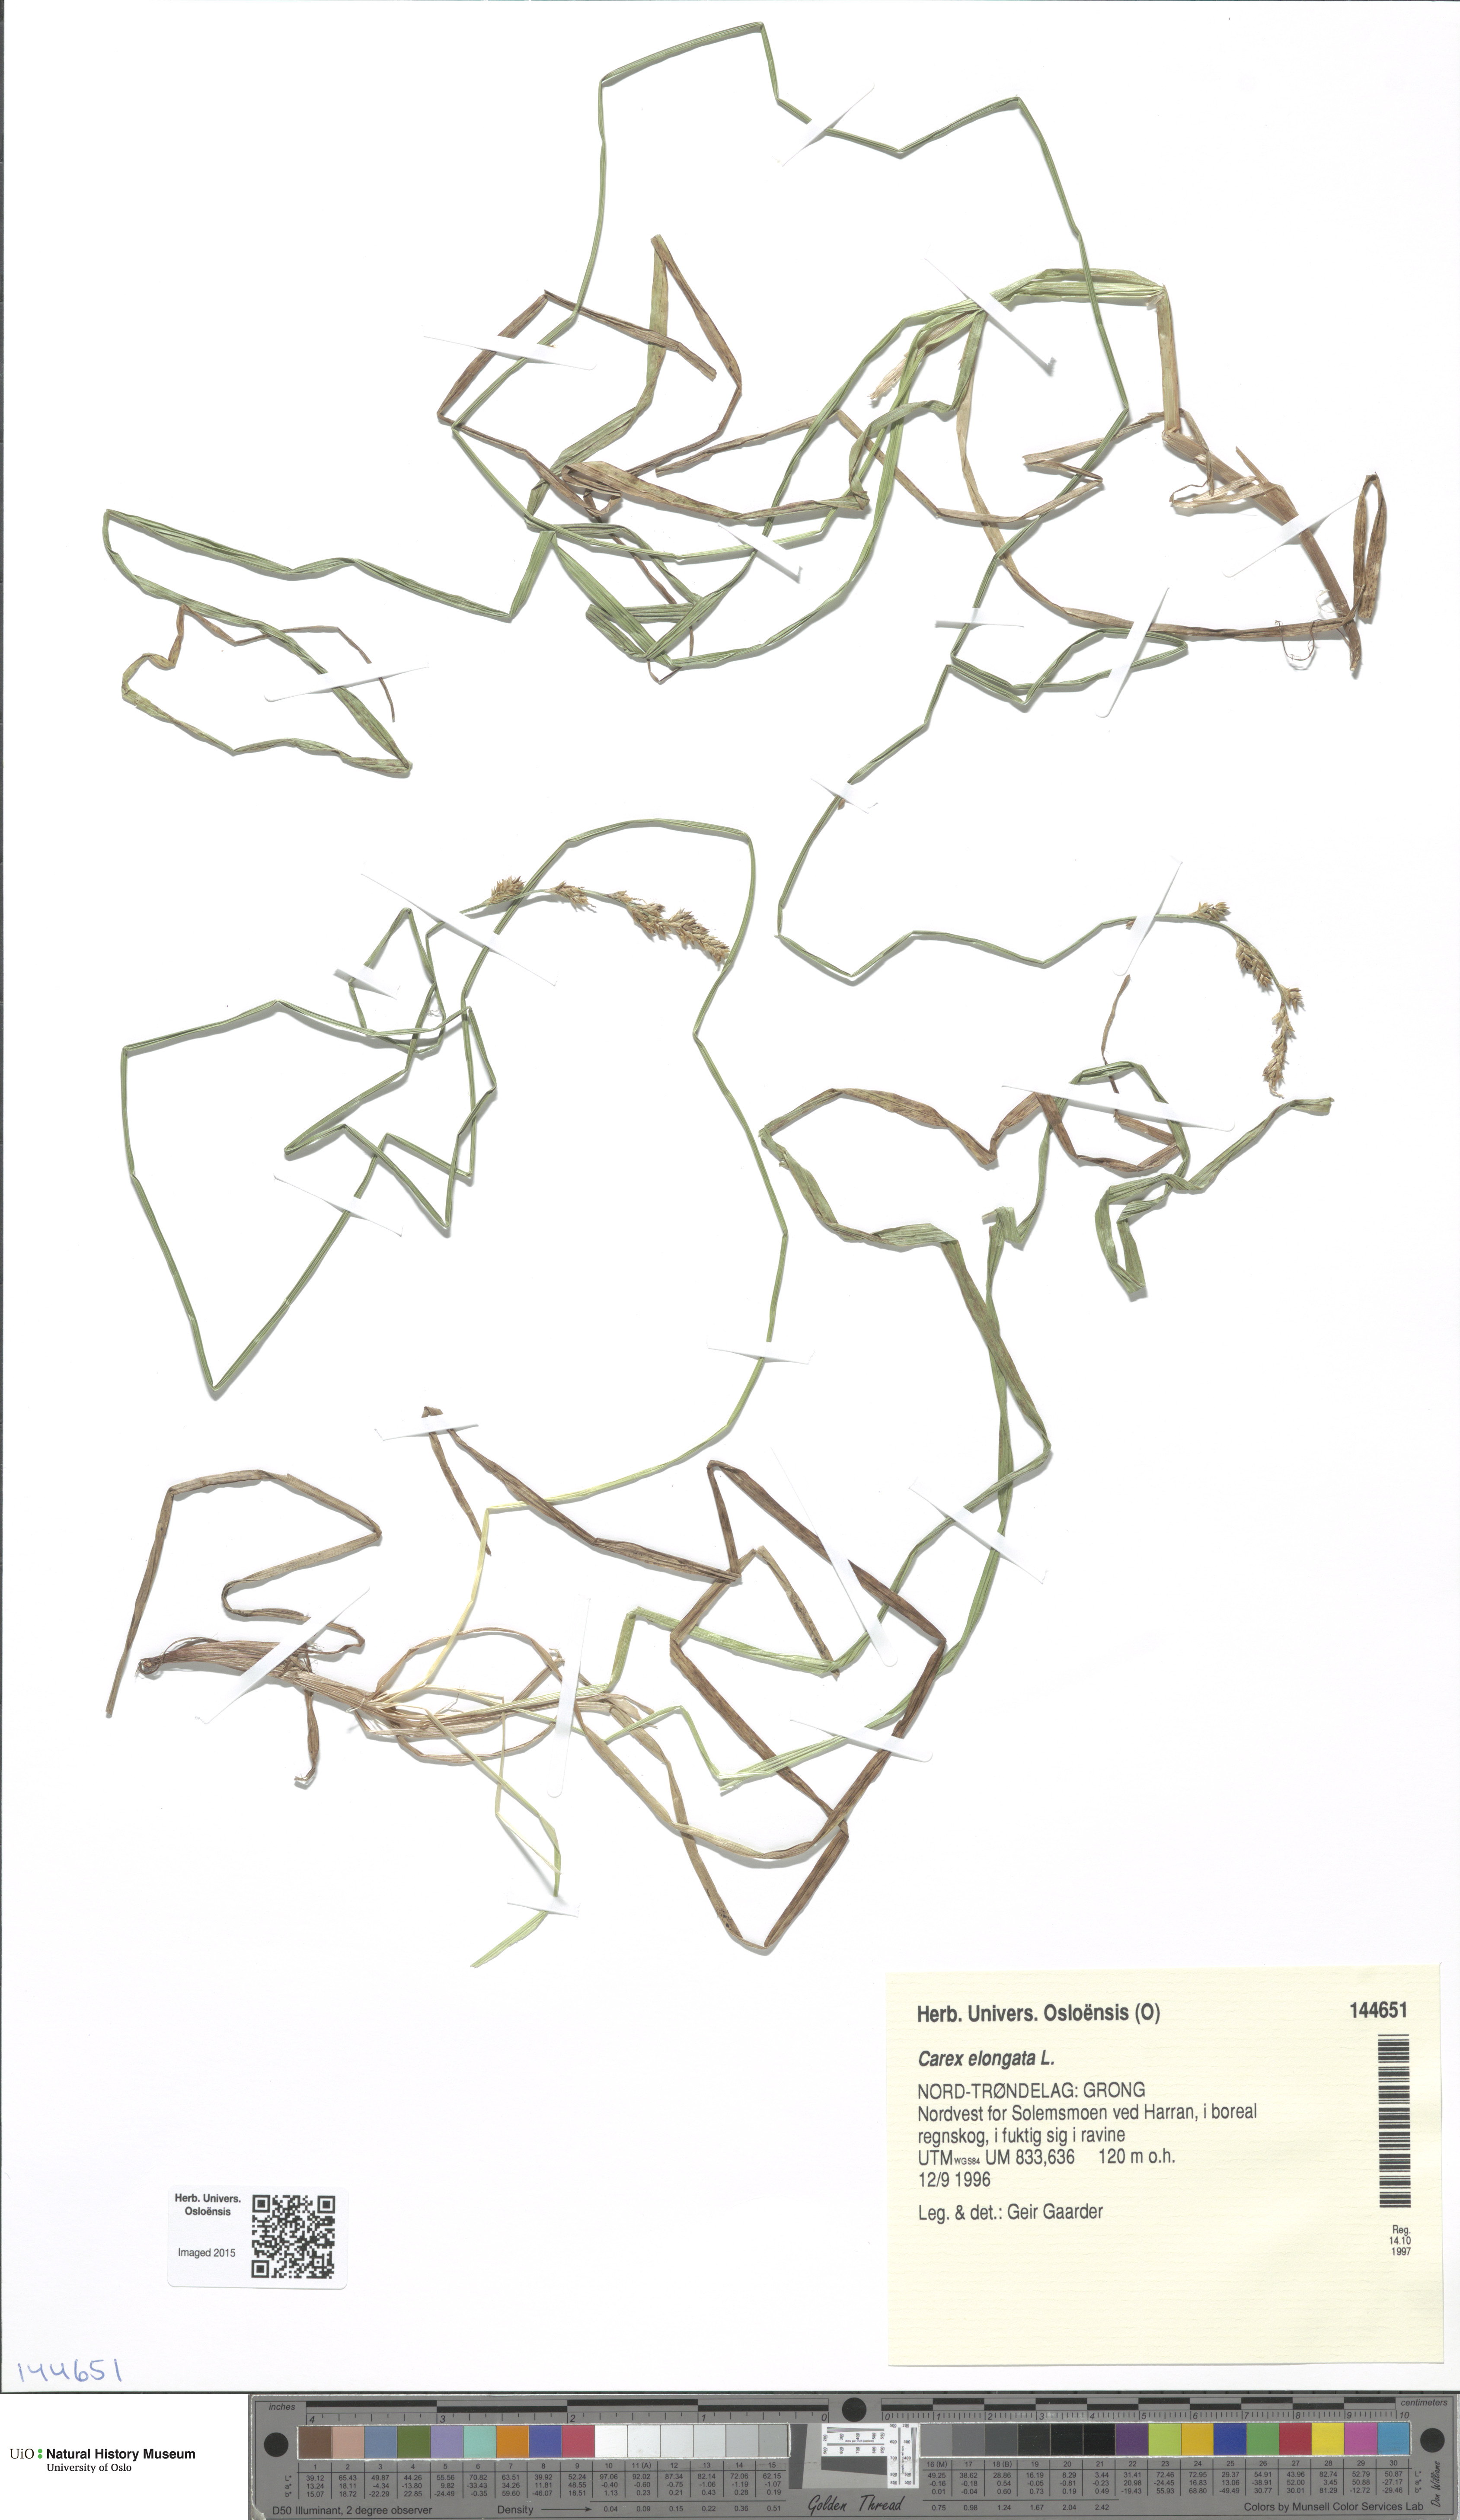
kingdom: Plantae
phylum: Tracheophyta
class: Liliopsida
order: Poales
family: Cyperaceae
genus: Carex
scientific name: Carex elongata
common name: Elongated sedge
